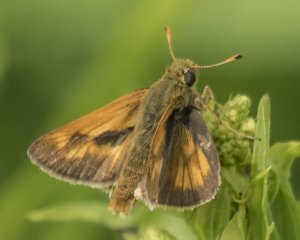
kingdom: Animalia
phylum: Arthropoda
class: Insecta
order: Lepidoptera
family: Hesperiidae
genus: Polites
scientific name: Polites
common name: Long Dash Skipper
